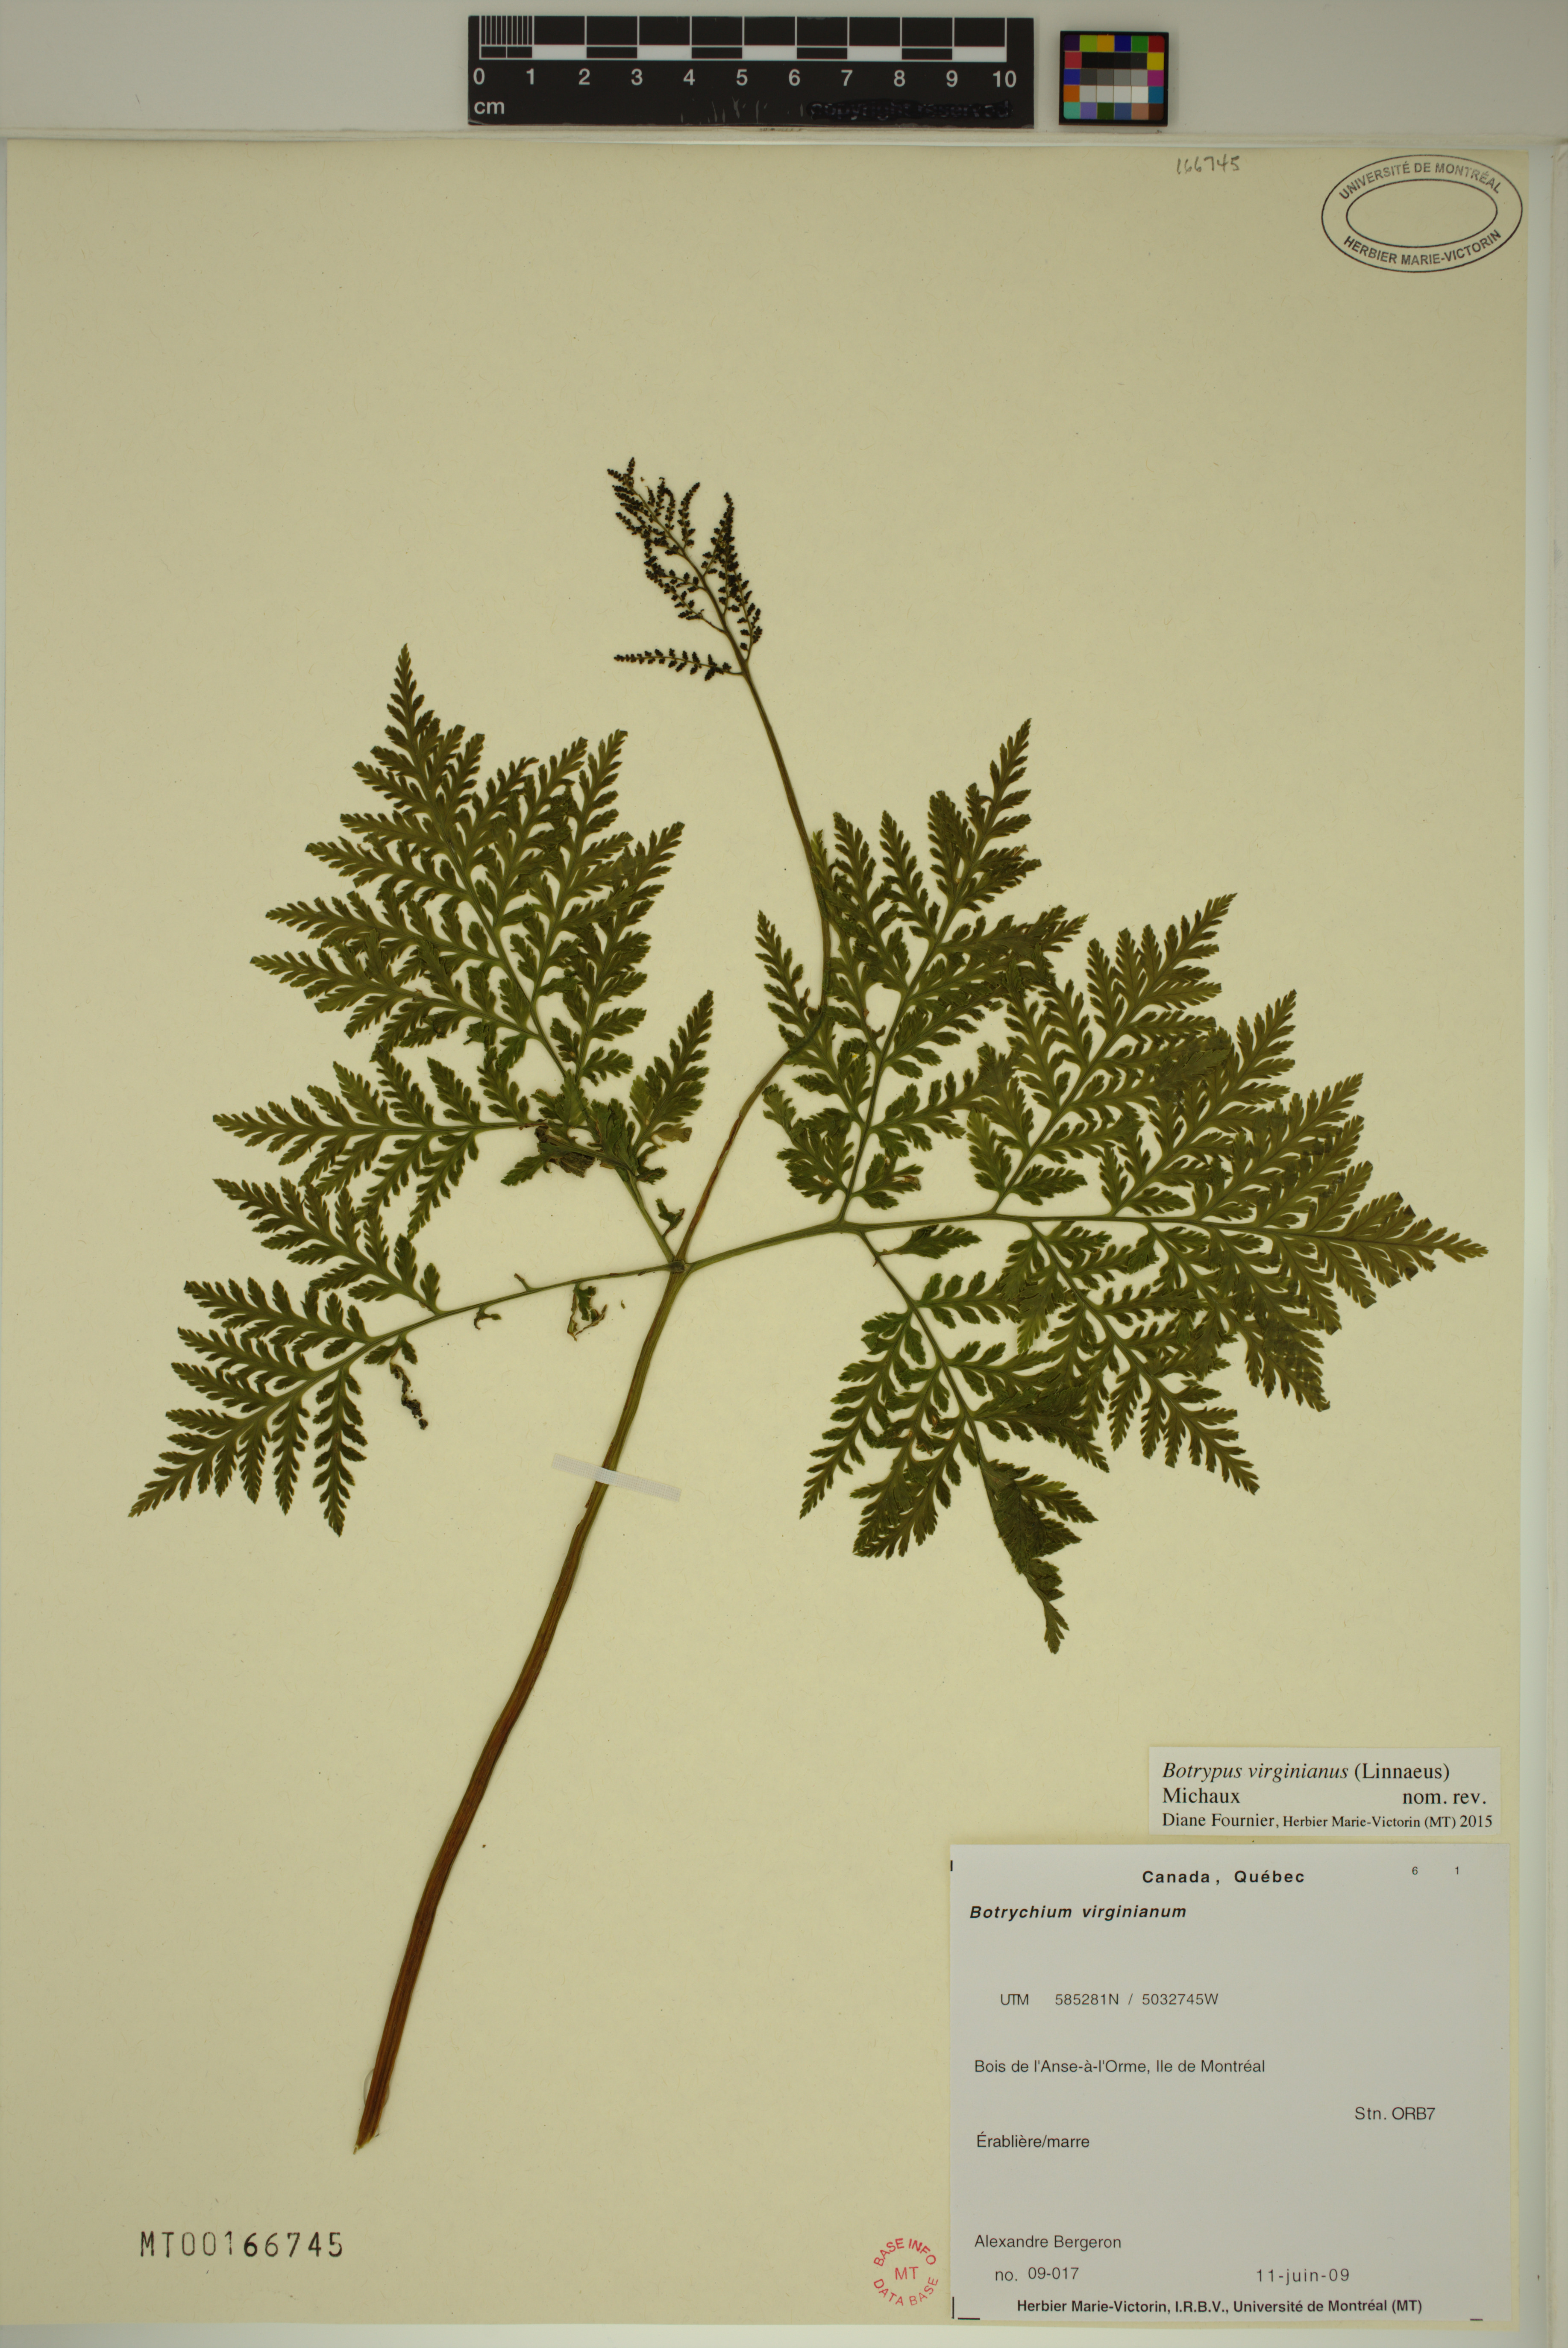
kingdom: Plantae
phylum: Tracheophyta
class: Polypodiopsida
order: Ophioglossales
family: Ophioglossaceae
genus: Botrypus
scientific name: Botrypus virginianus
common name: Common grapefern
